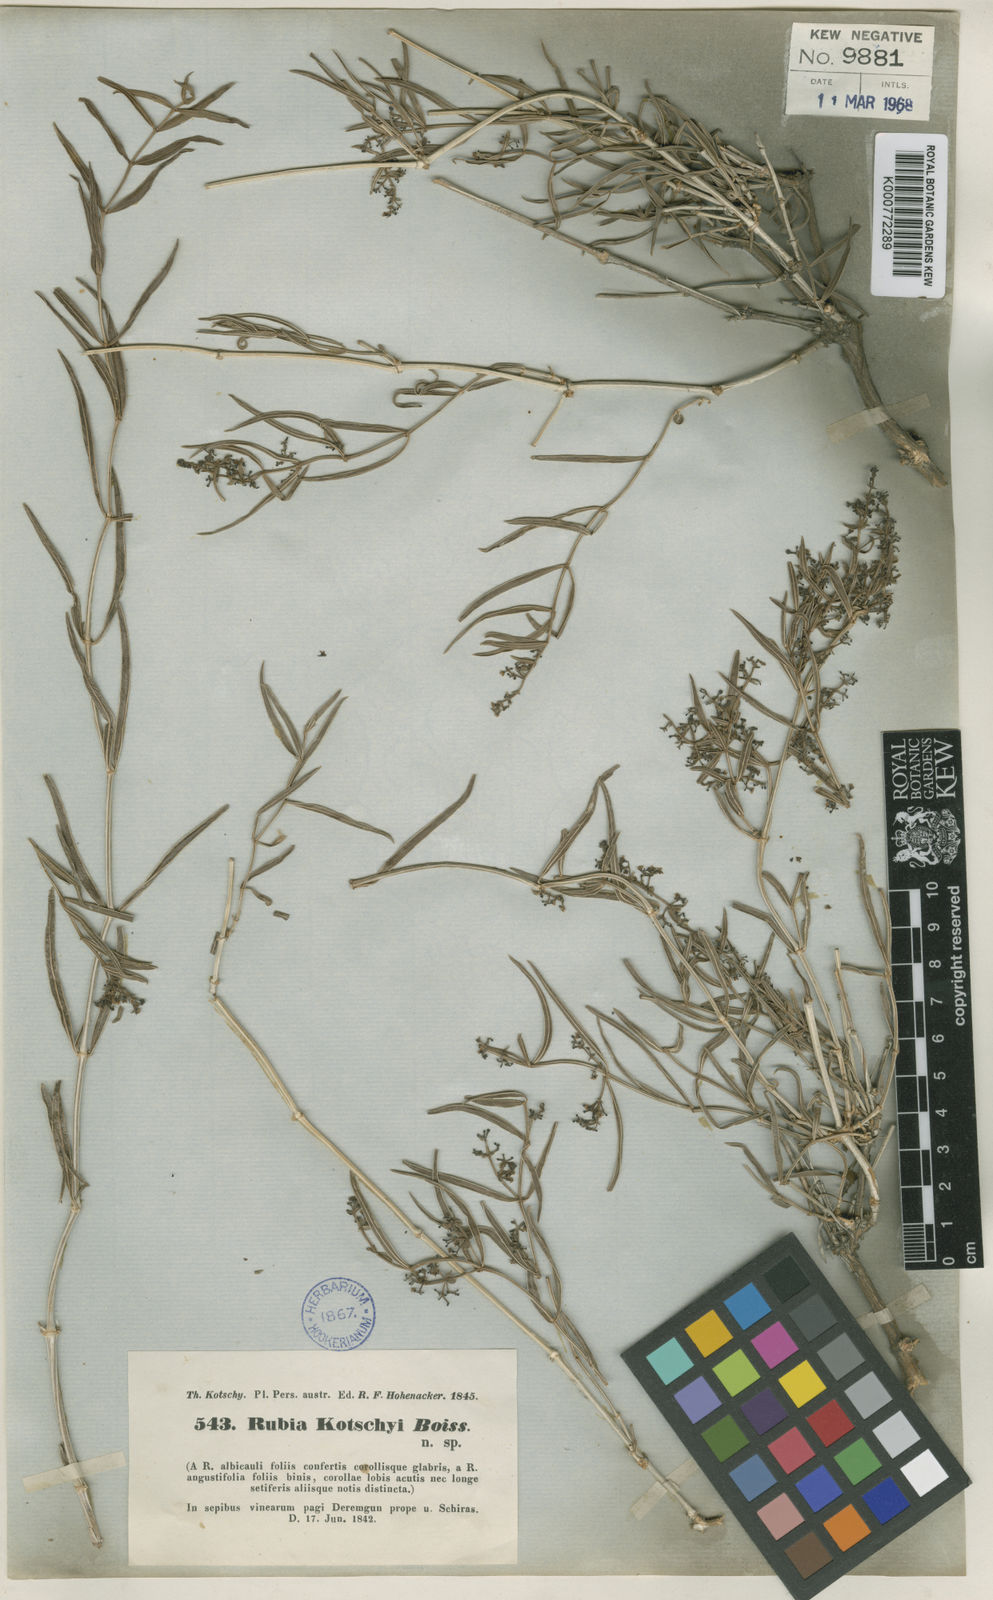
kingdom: Plantae
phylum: Tracheophyta
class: Magnoliopsida
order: Gentianales
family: Rubiaceae
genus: Rubia
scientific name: Rubia pauciflora
